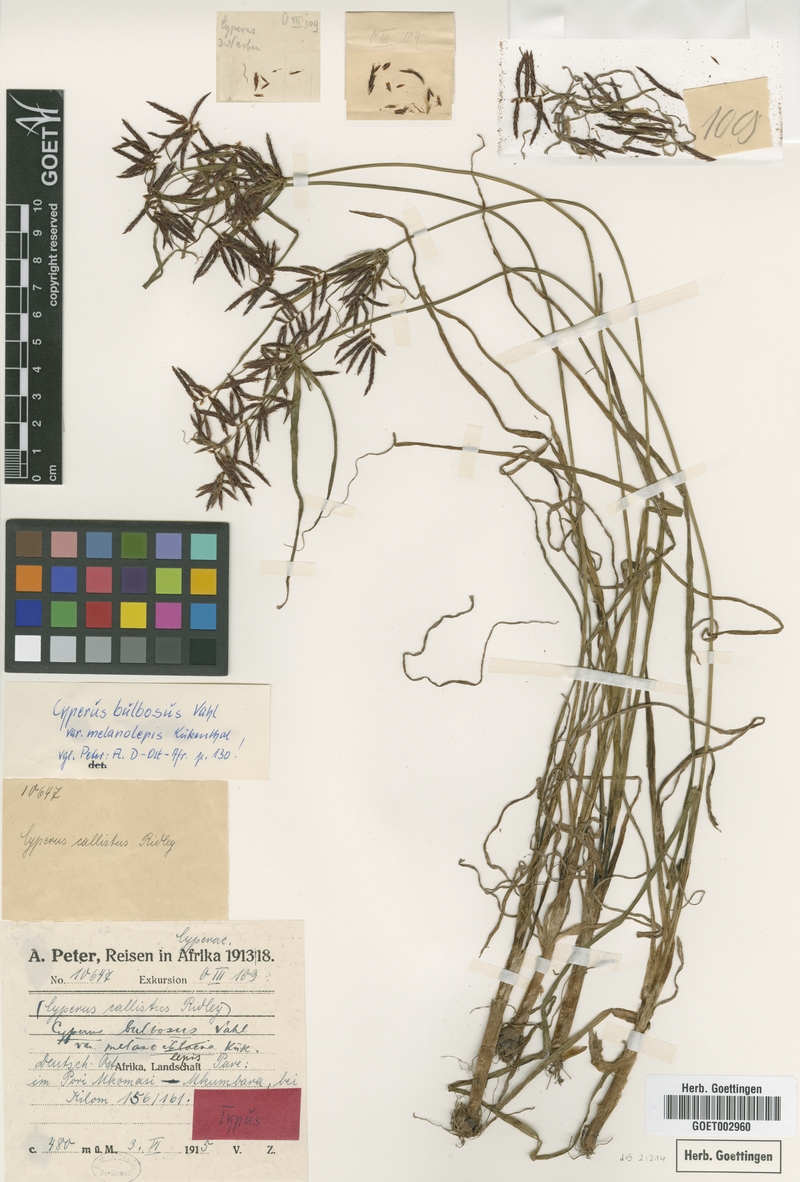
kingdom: Plantae
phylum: Tracheophyta
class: Liliopsida
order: Poales
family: Cyperaceae
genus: Cyperus
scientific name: Cyperus bulbosus
